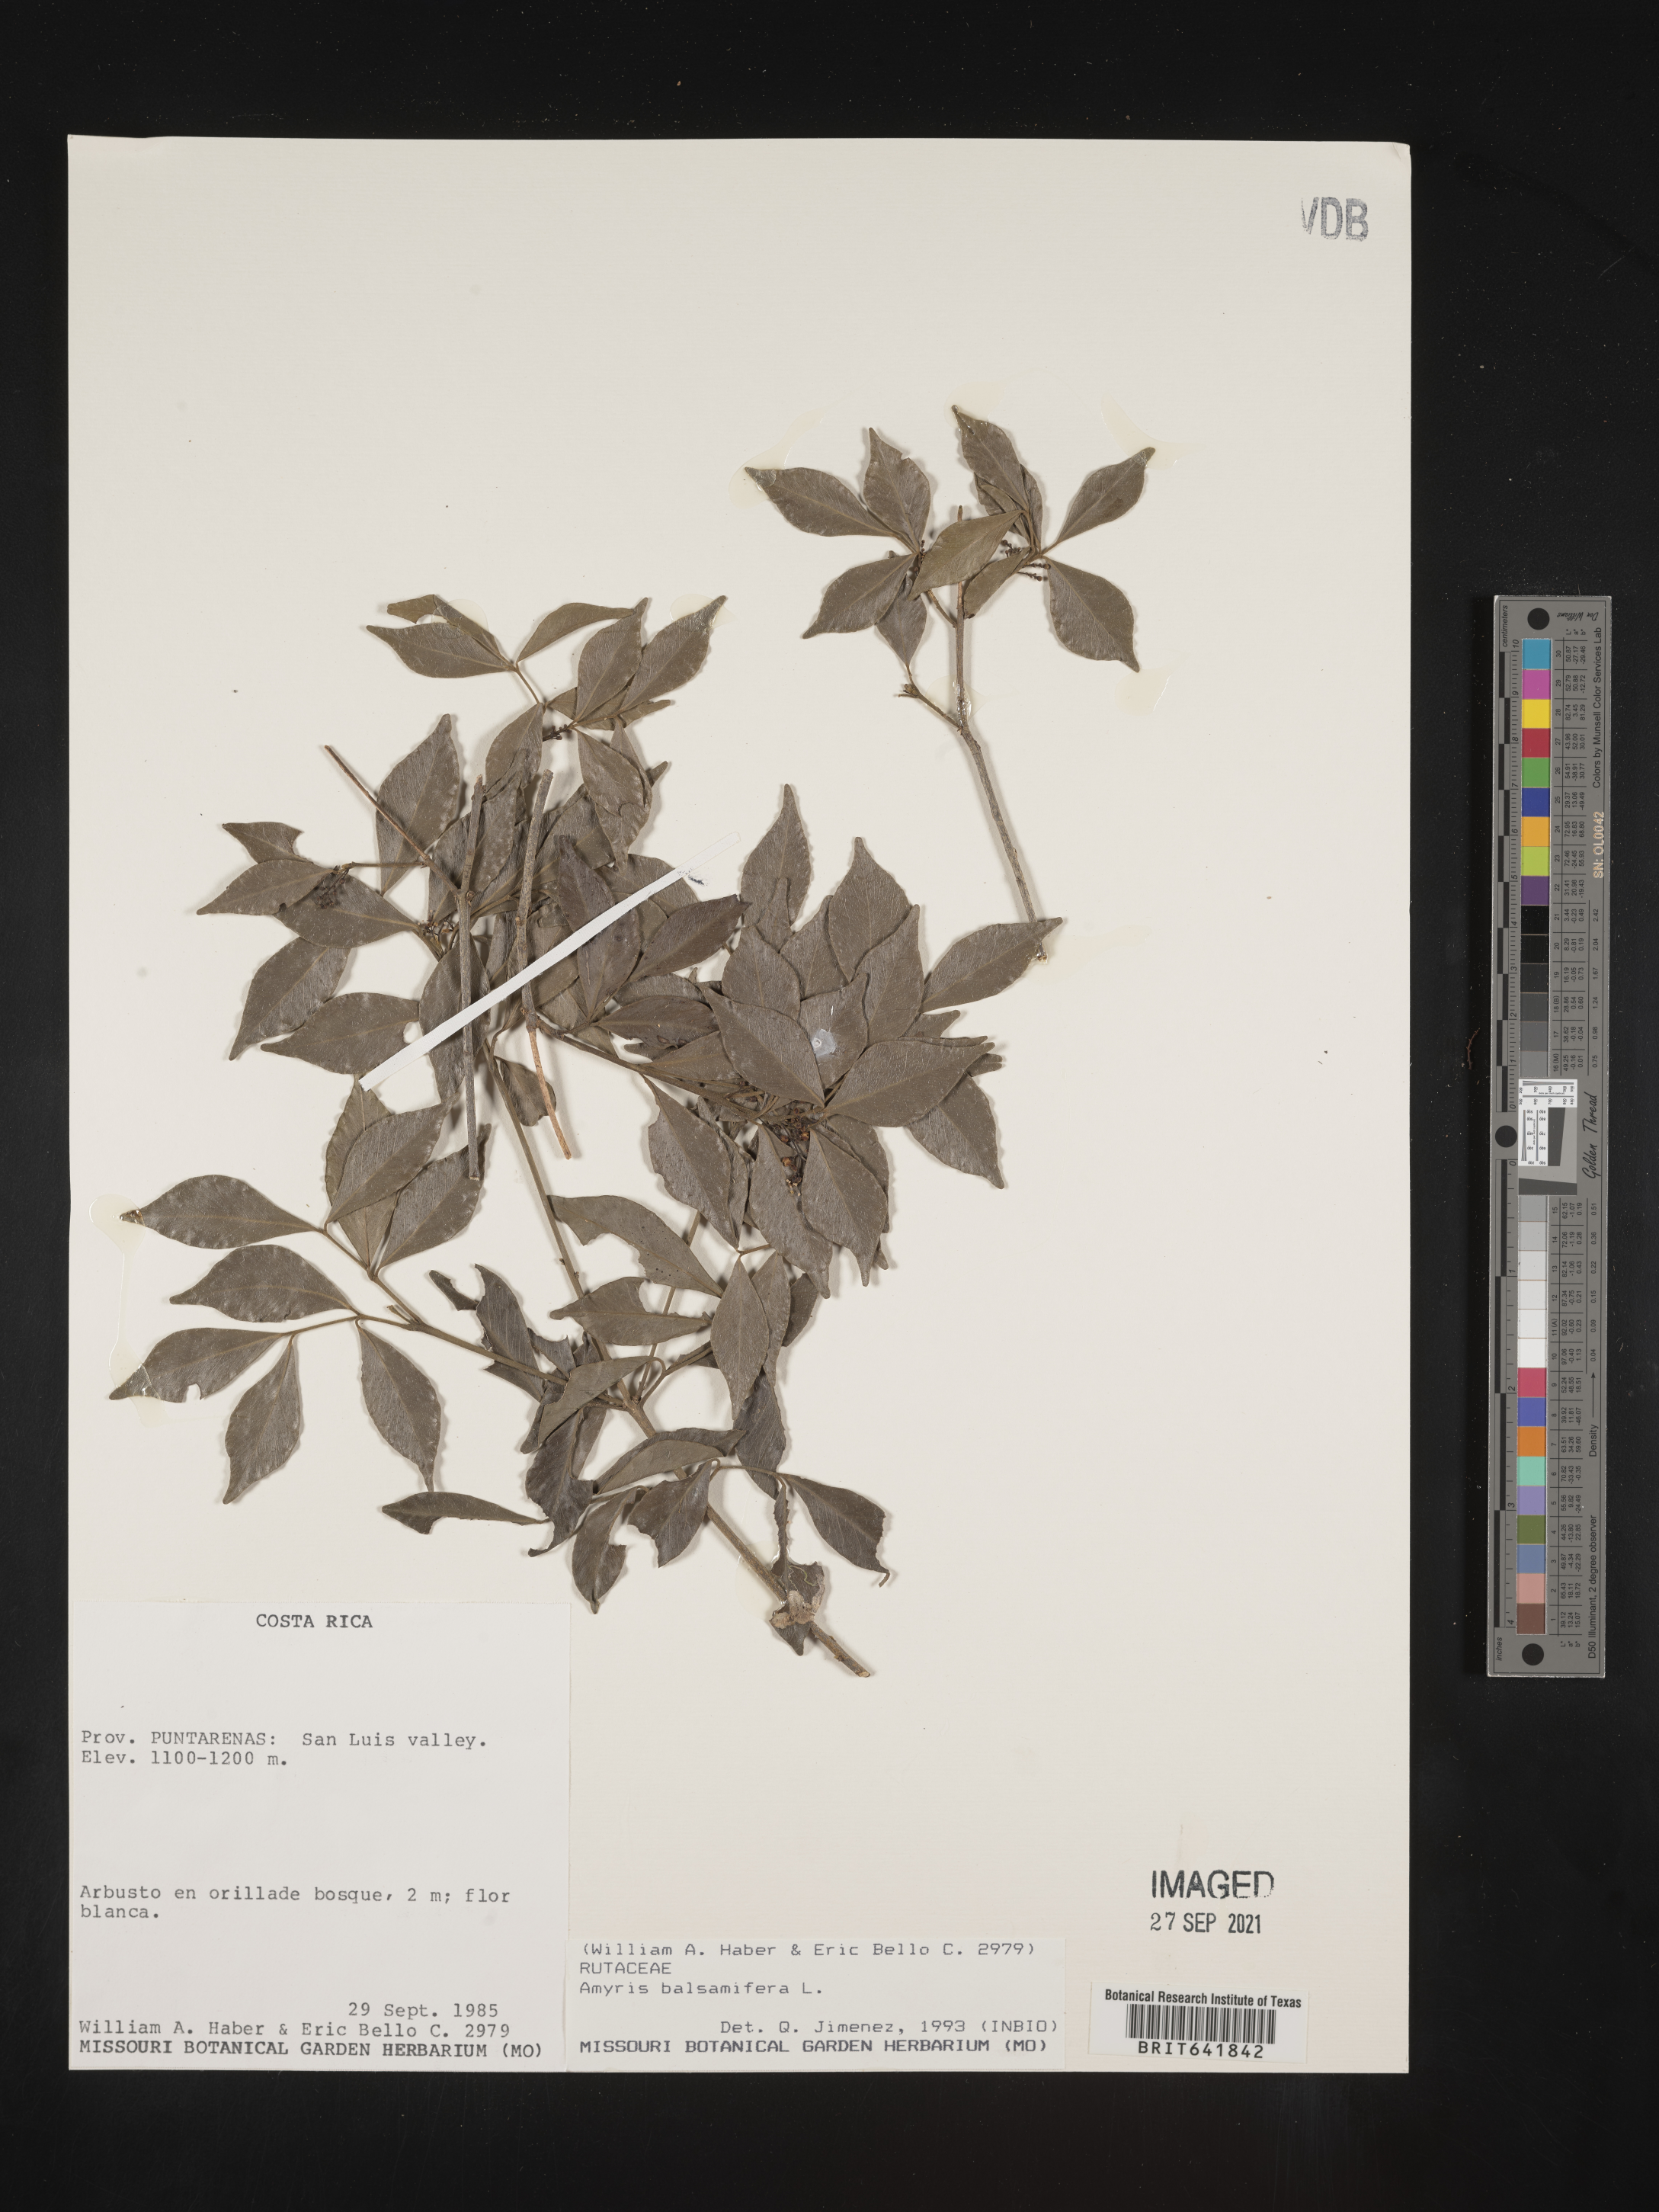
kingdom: Plantae
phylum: Tracheophyta
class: Magnoliopsida
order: Sapindales
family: Rutaceae
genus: Amyris
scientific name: Amyris
